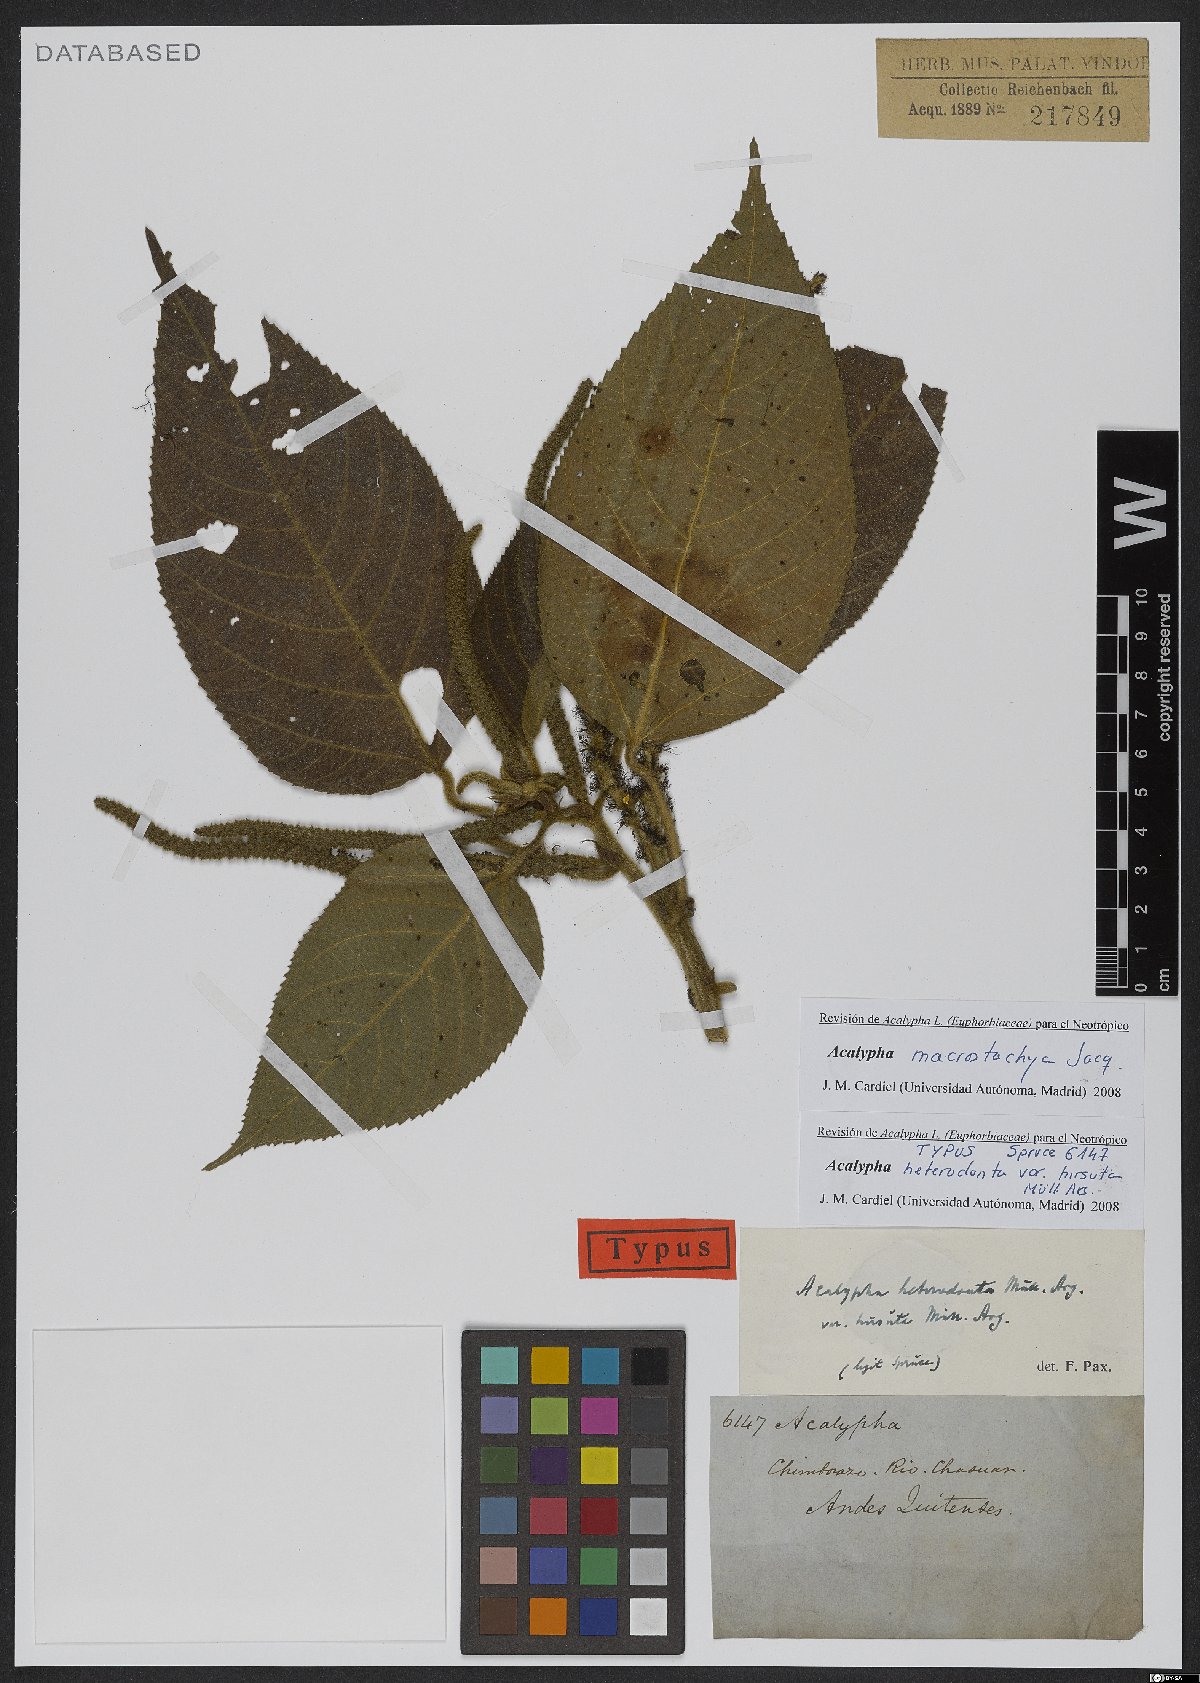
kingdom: Plantae
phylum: Tracheophyta
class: Magnoliopsida
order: Malpighiales
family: Euphorbiaceae
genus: Acalypha
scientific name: Acalypha macrostachya
